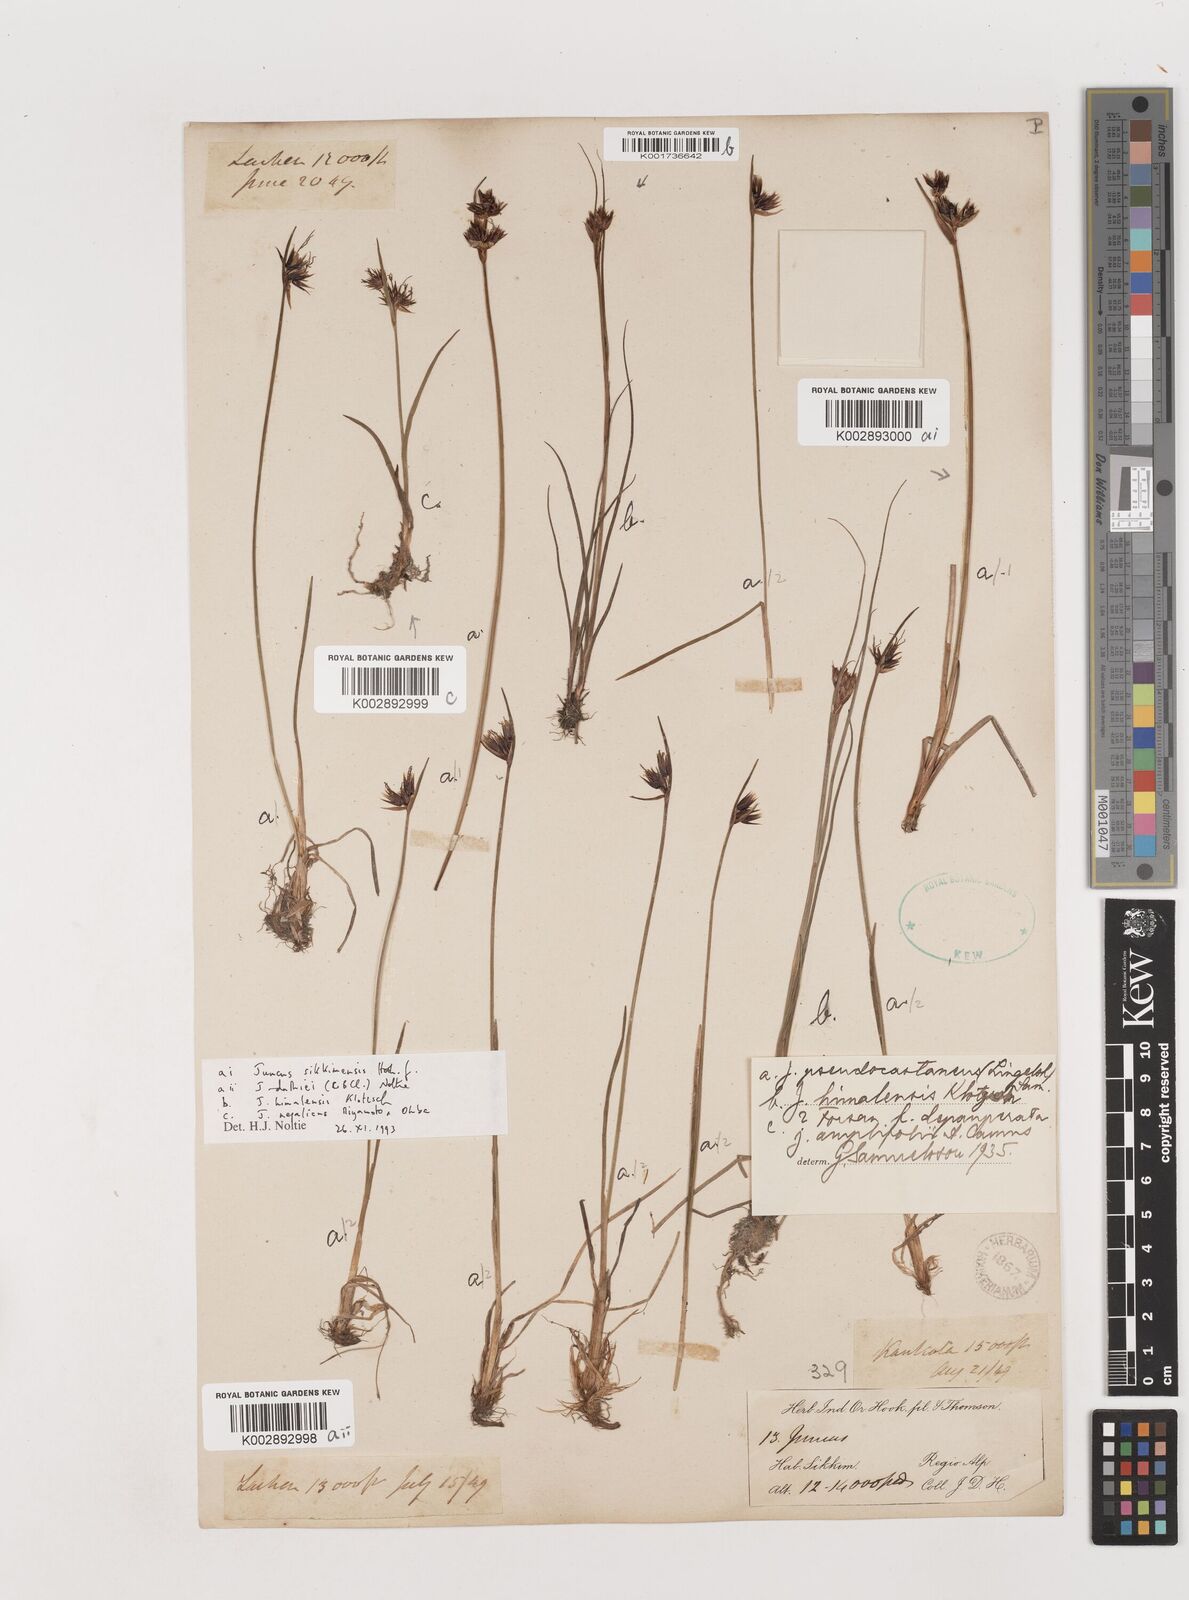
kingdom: Plantae
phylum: Tracheophyta
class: Liliopsida
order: Poales
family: Juncaceae
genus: Juncus
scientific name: Juncus
